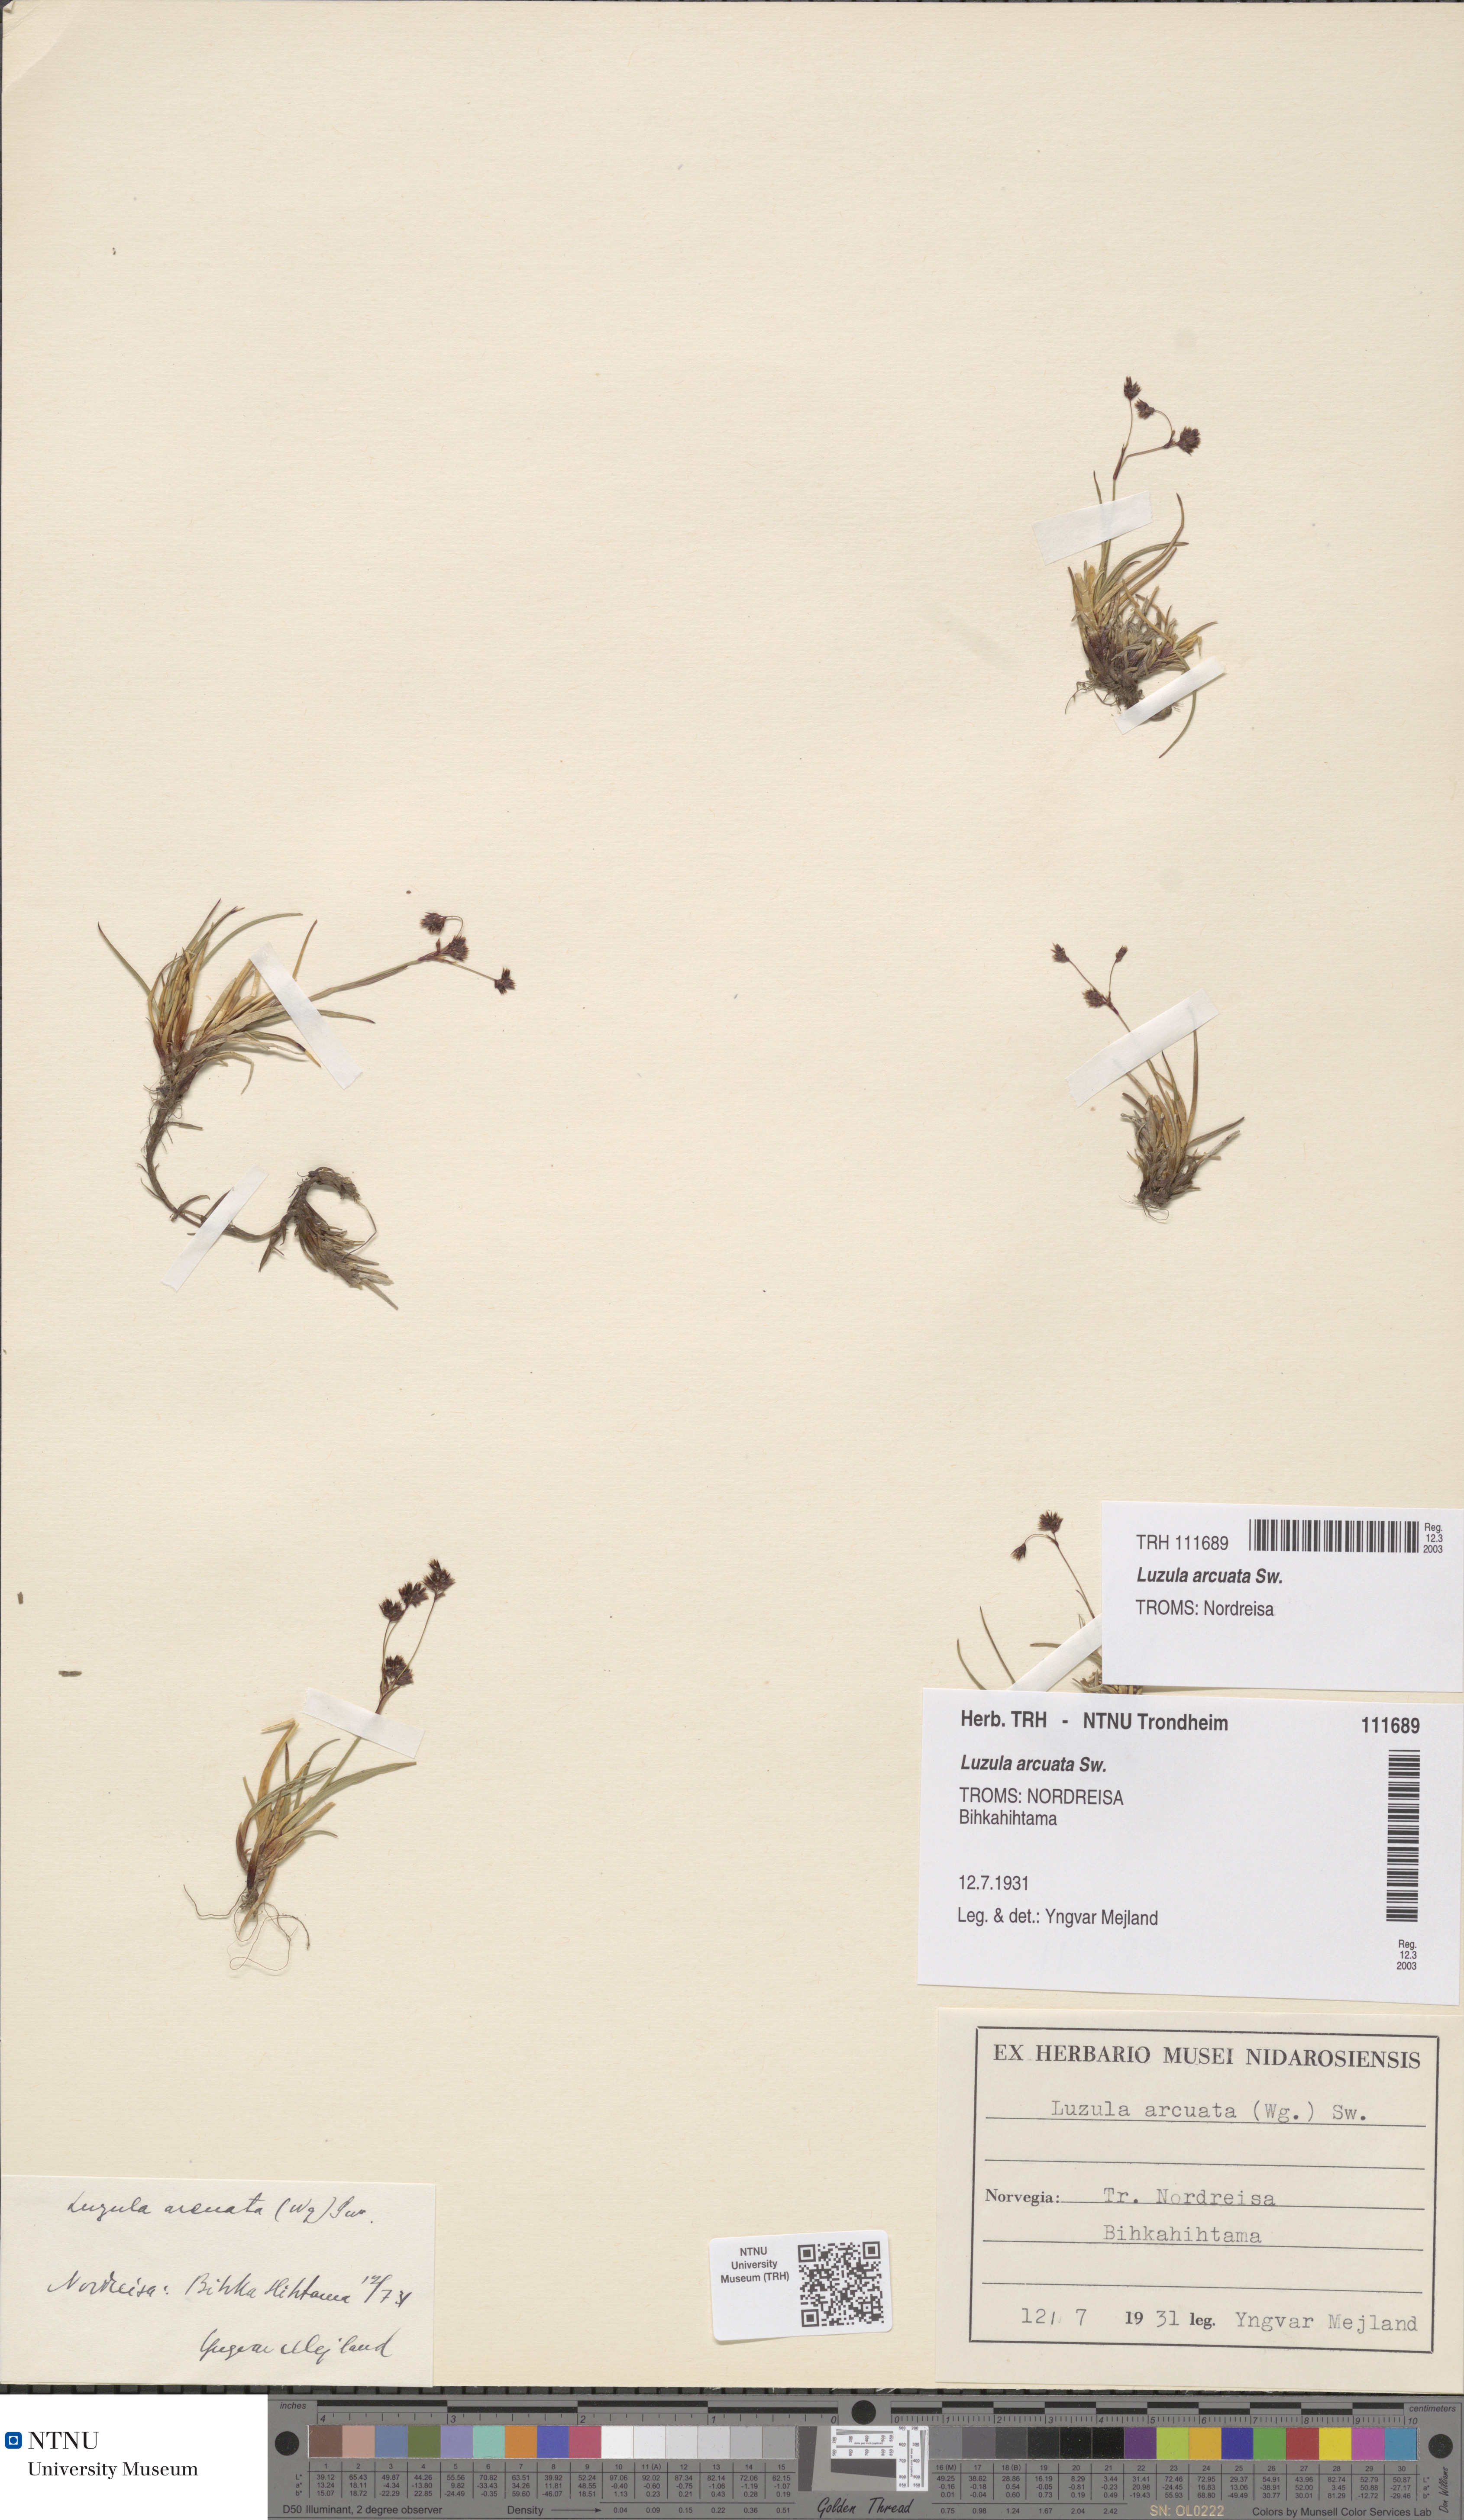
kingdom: Plantae
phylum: Tracheophyta
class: Liliopsida
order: Poales
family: Juncaceae
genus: Luzula
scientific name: Luzula arcuata
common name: Curved wood-rush
